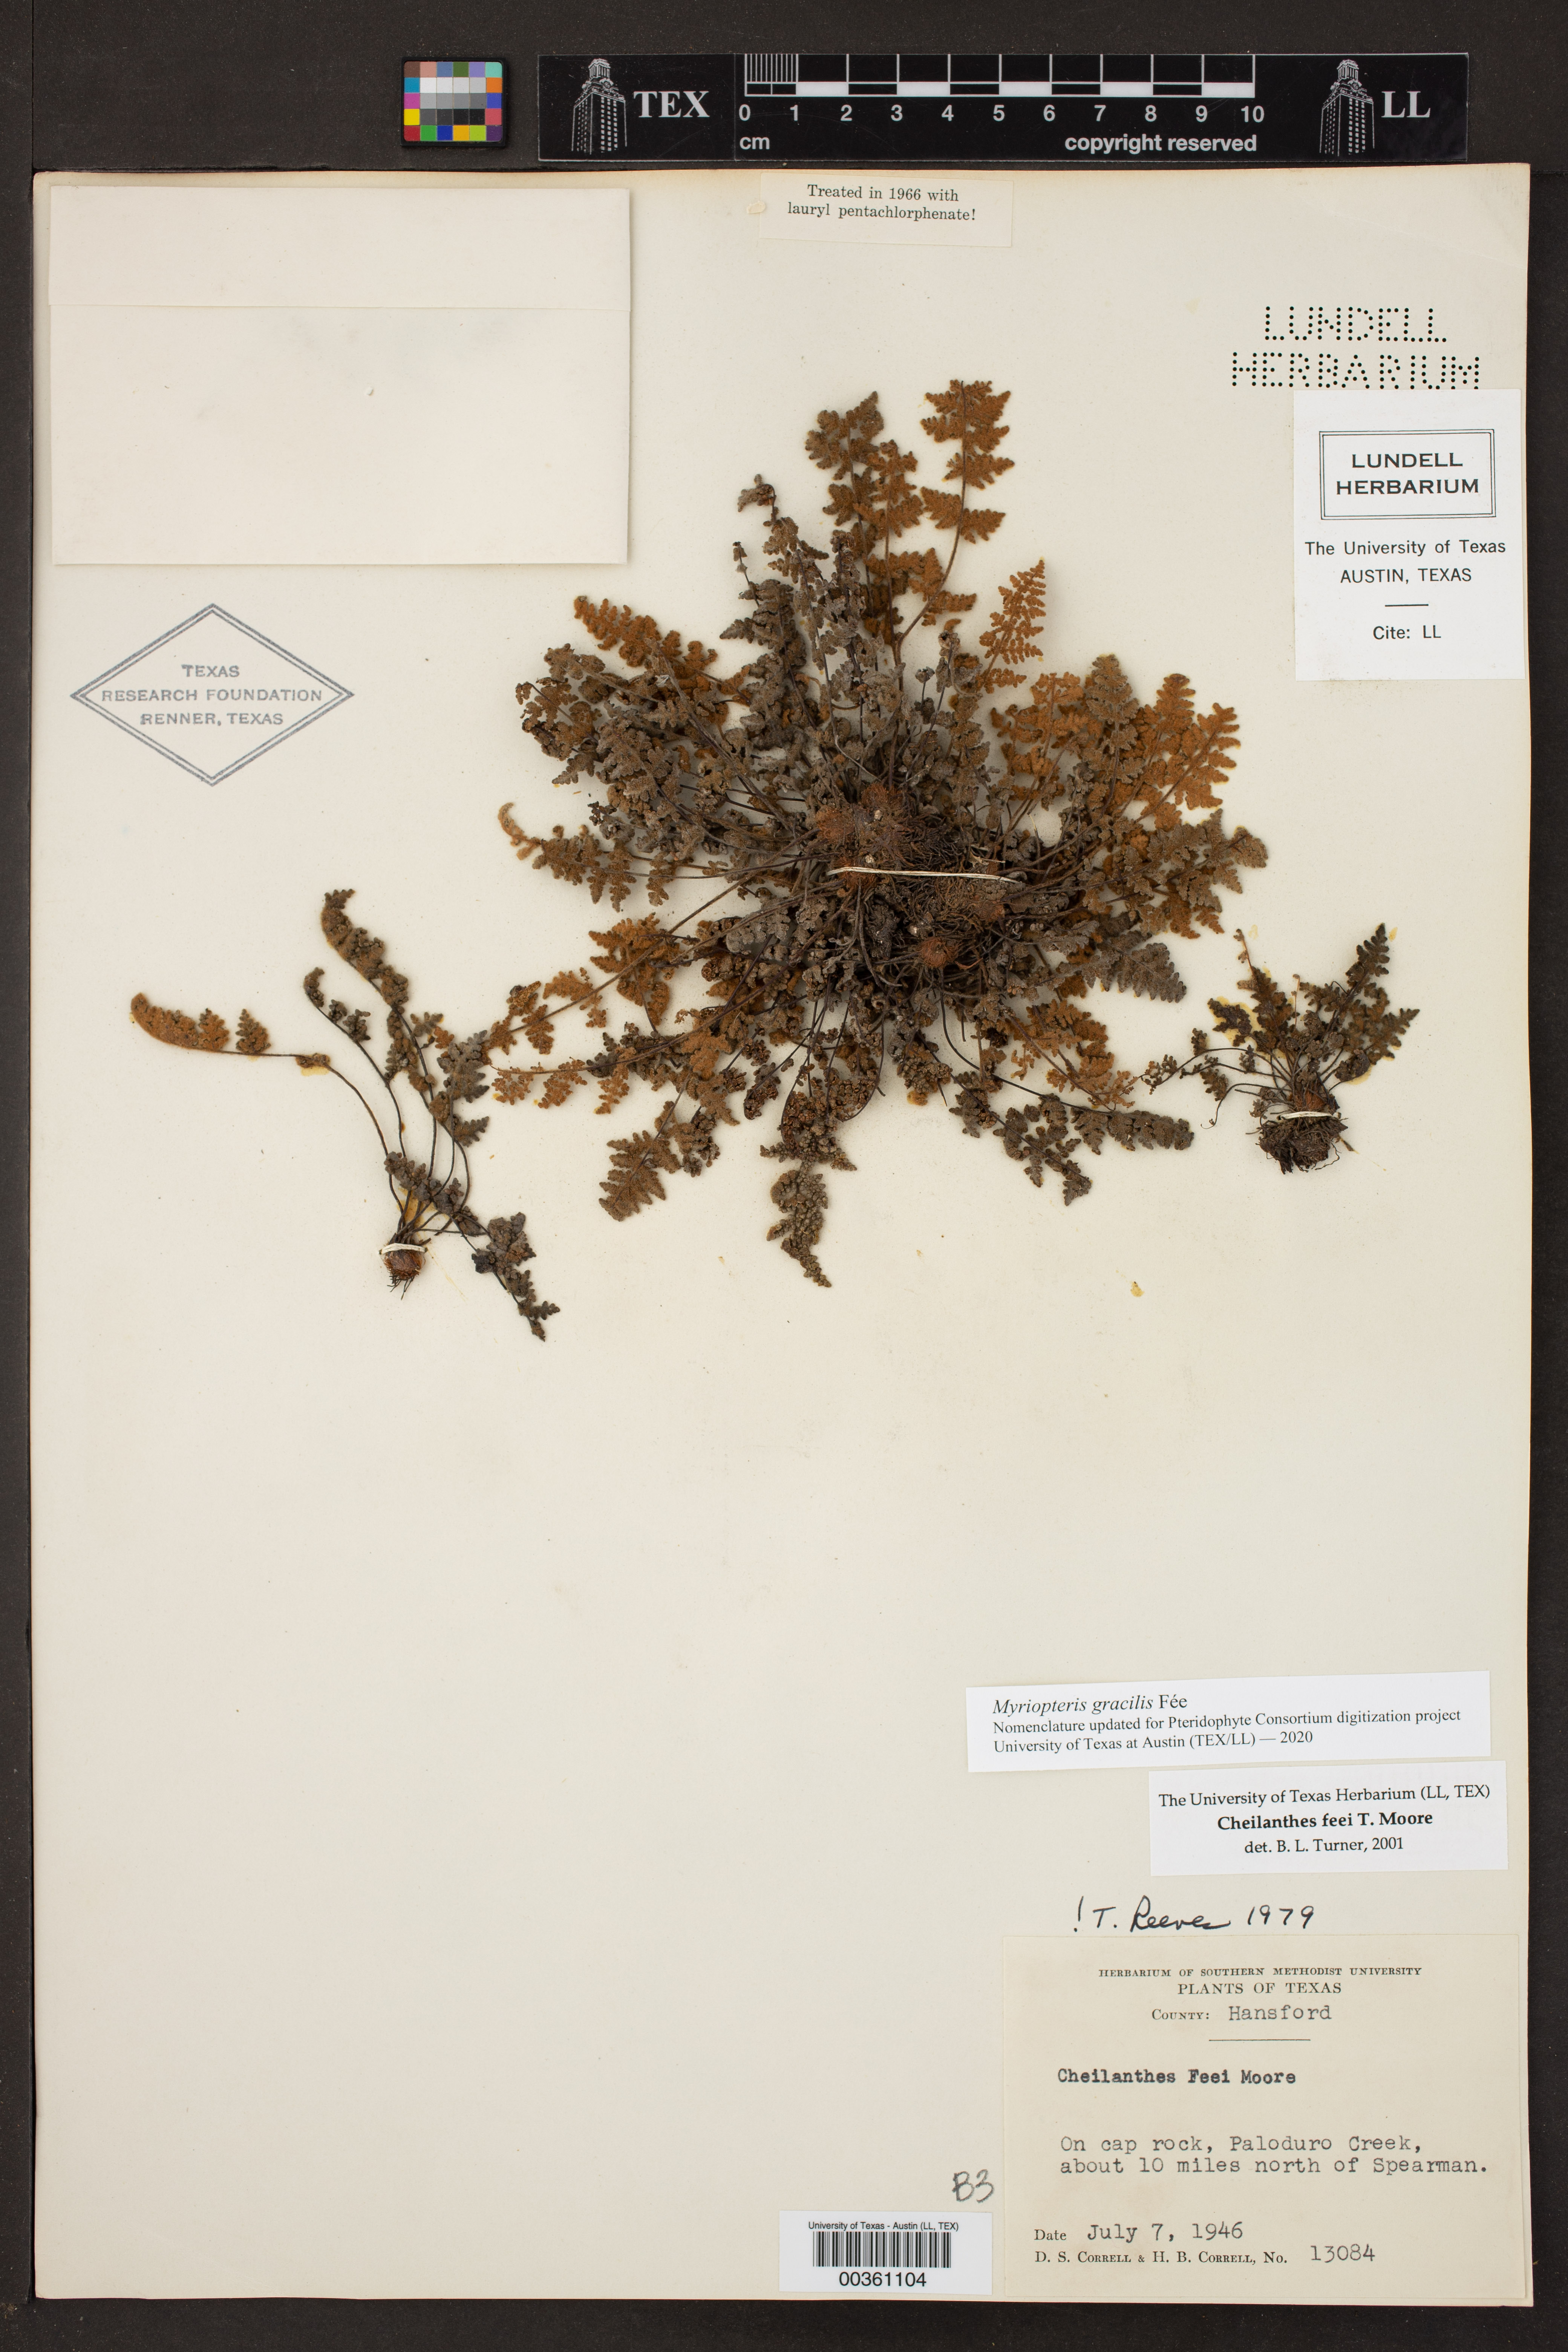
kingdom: Plantae
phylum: Tracheophyta
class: Polypodiopsida
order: Polypodiales
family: Pteridaceae
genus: Myriopteris
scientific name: Myriopteris gracilis
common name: Fee's lip fern
